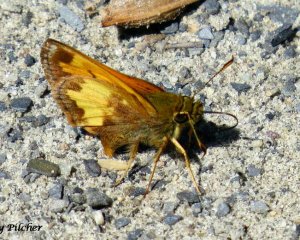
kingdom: Animalia
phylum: Arthropoda
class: Insecta
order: Lepidoptera
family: Hesperiidae
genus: Lon
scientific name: Lon hobomok
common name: Hobomok Skipper
